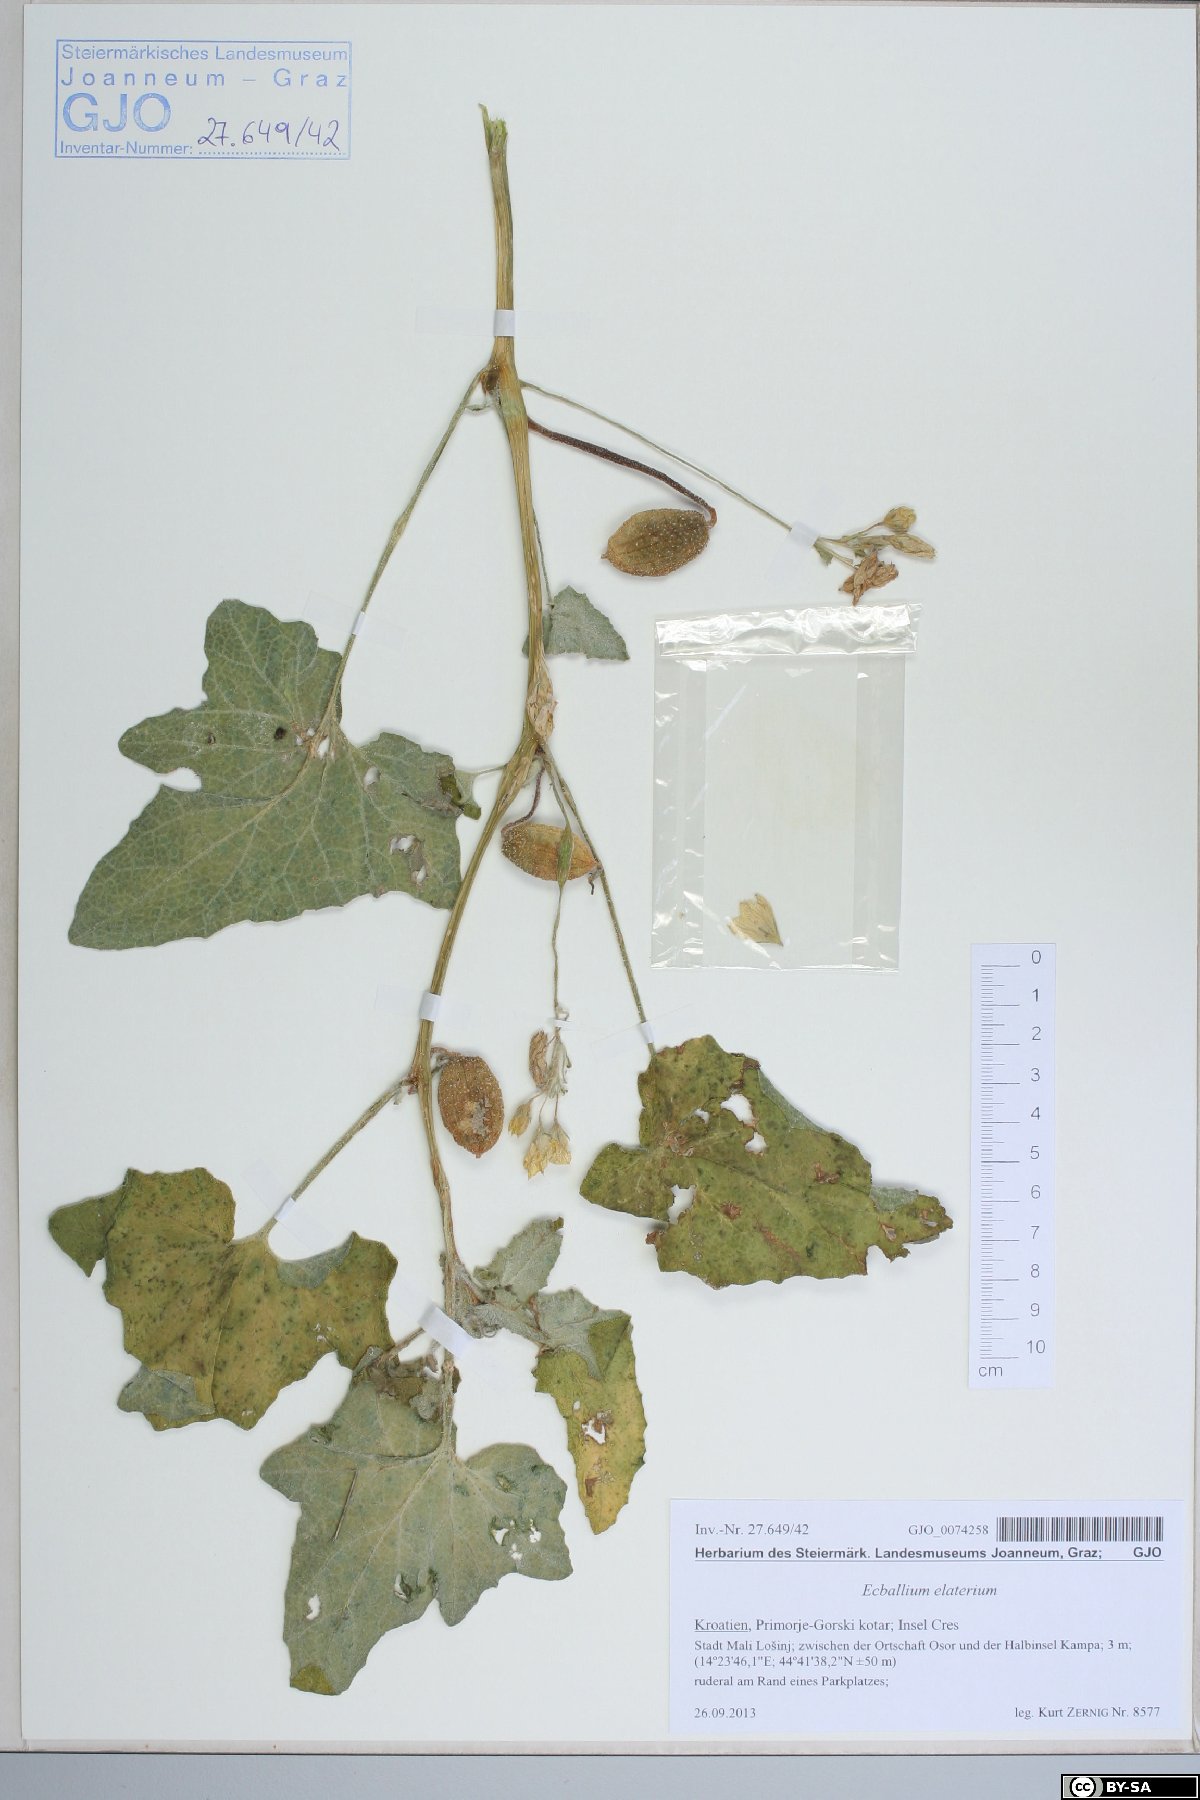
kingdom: Plantae
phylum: Tracheophyta
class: Magnoliopsida
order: Cucurbitales
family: Cucurbitaceae
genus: Ecballium
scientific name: Ecballium elaterium
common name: Squirting cucumber
